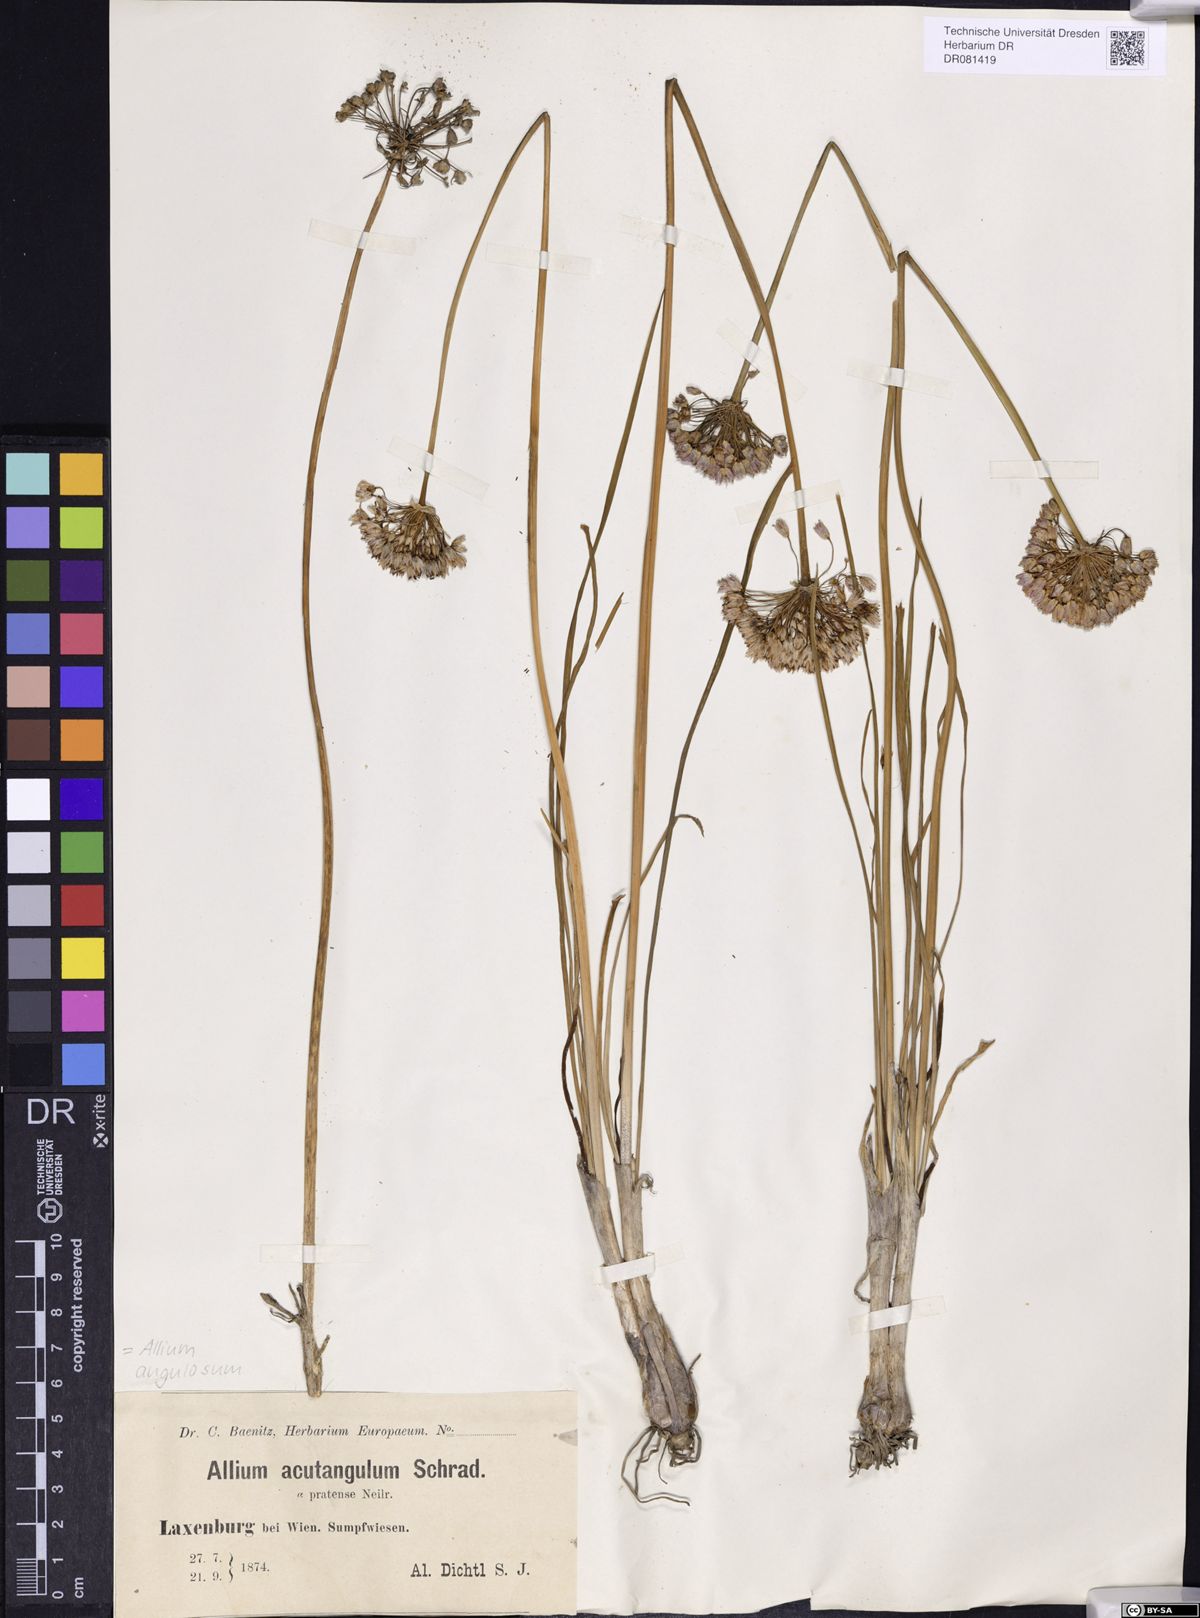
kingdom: Plantae
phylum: Tracheophyta
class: Liliopsida
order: Asparagales
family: Amaryllidaceae
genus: Allium
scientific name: Allium angulosum
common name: Mouse garlic
